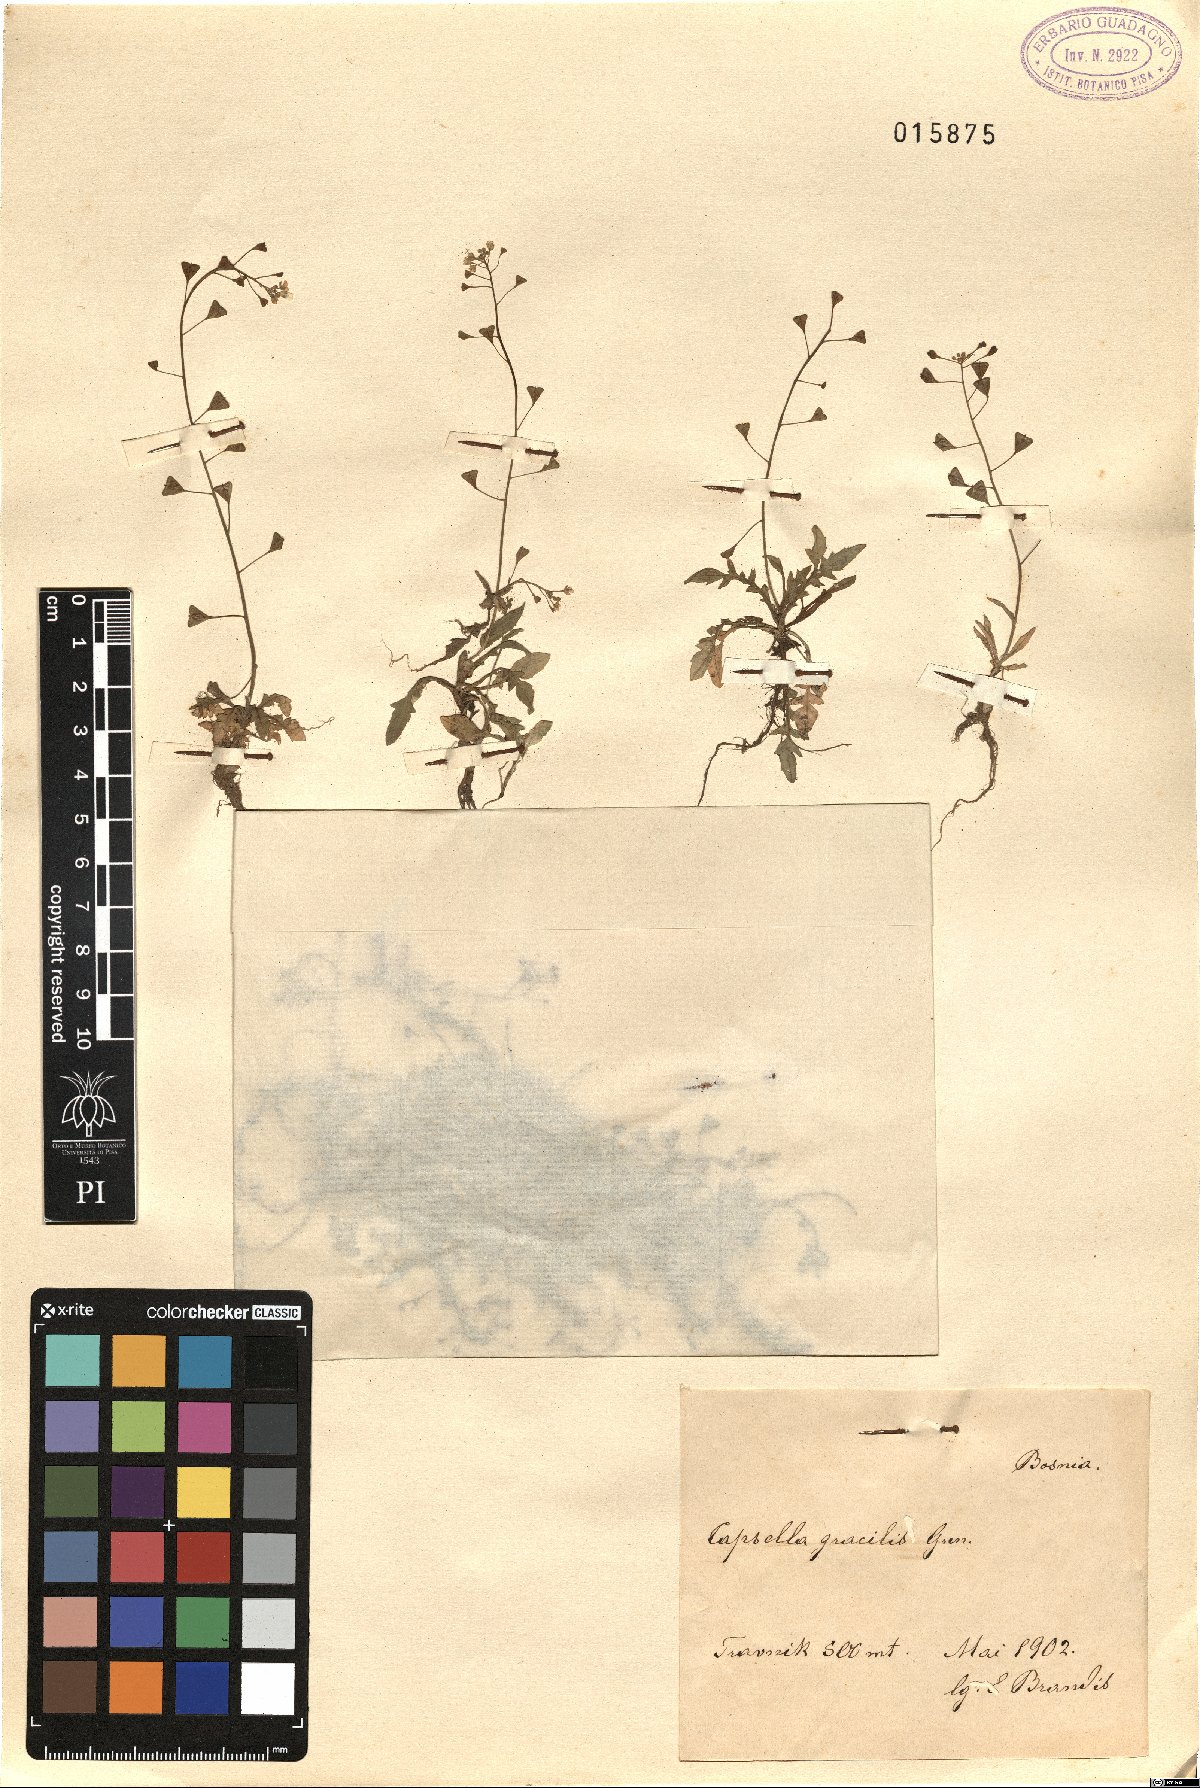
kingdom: Plantae
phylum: Tracheophyta
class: Magnoliopsida
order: Brassicales
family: Brassicaceae
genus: Capsella
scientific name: Capsella rubella
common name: Pink shepherd's-purse
